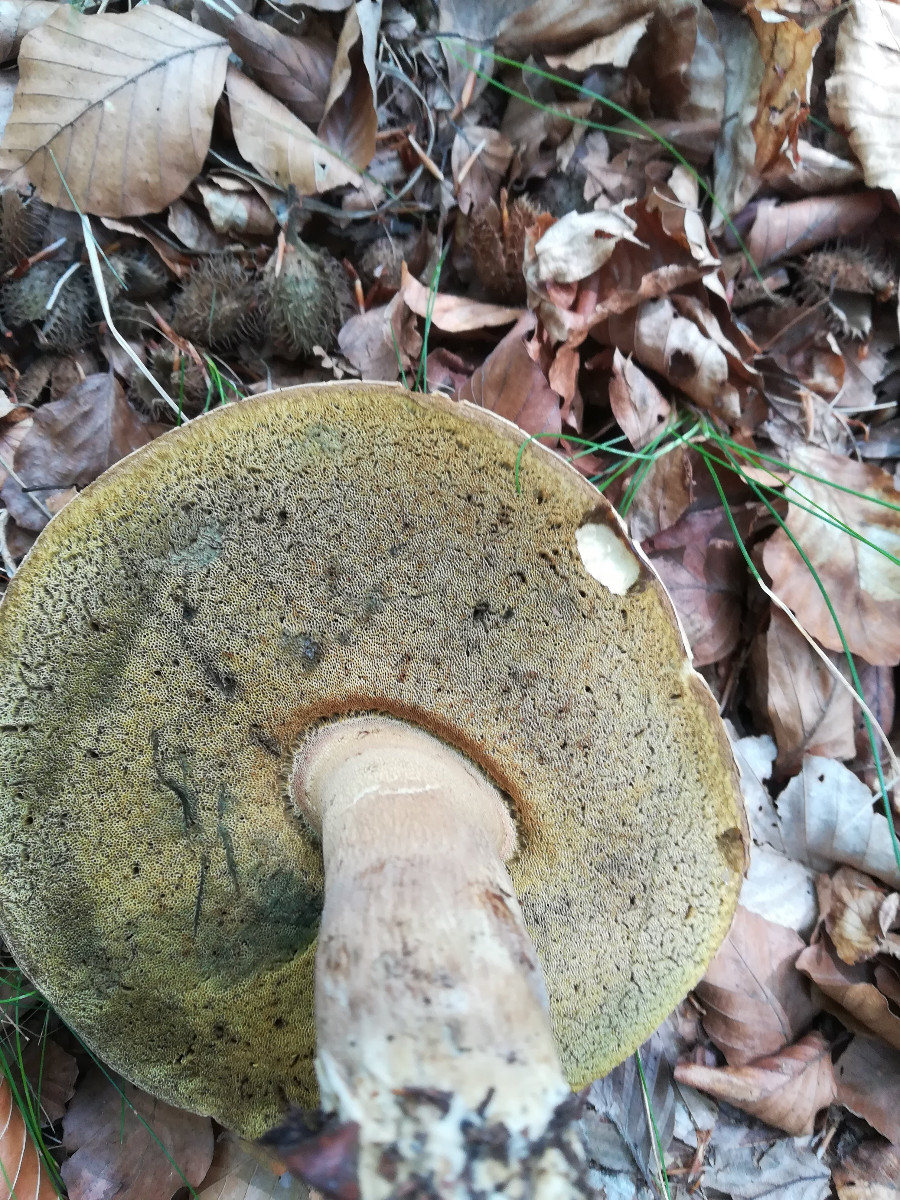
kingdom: Fungi
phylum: Basidiomycota
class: Agaricomycetes
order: Boletales
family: Boletaceae
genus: Caloboletus
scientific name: Caloboletus calopus
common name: skønfodet rørhat
